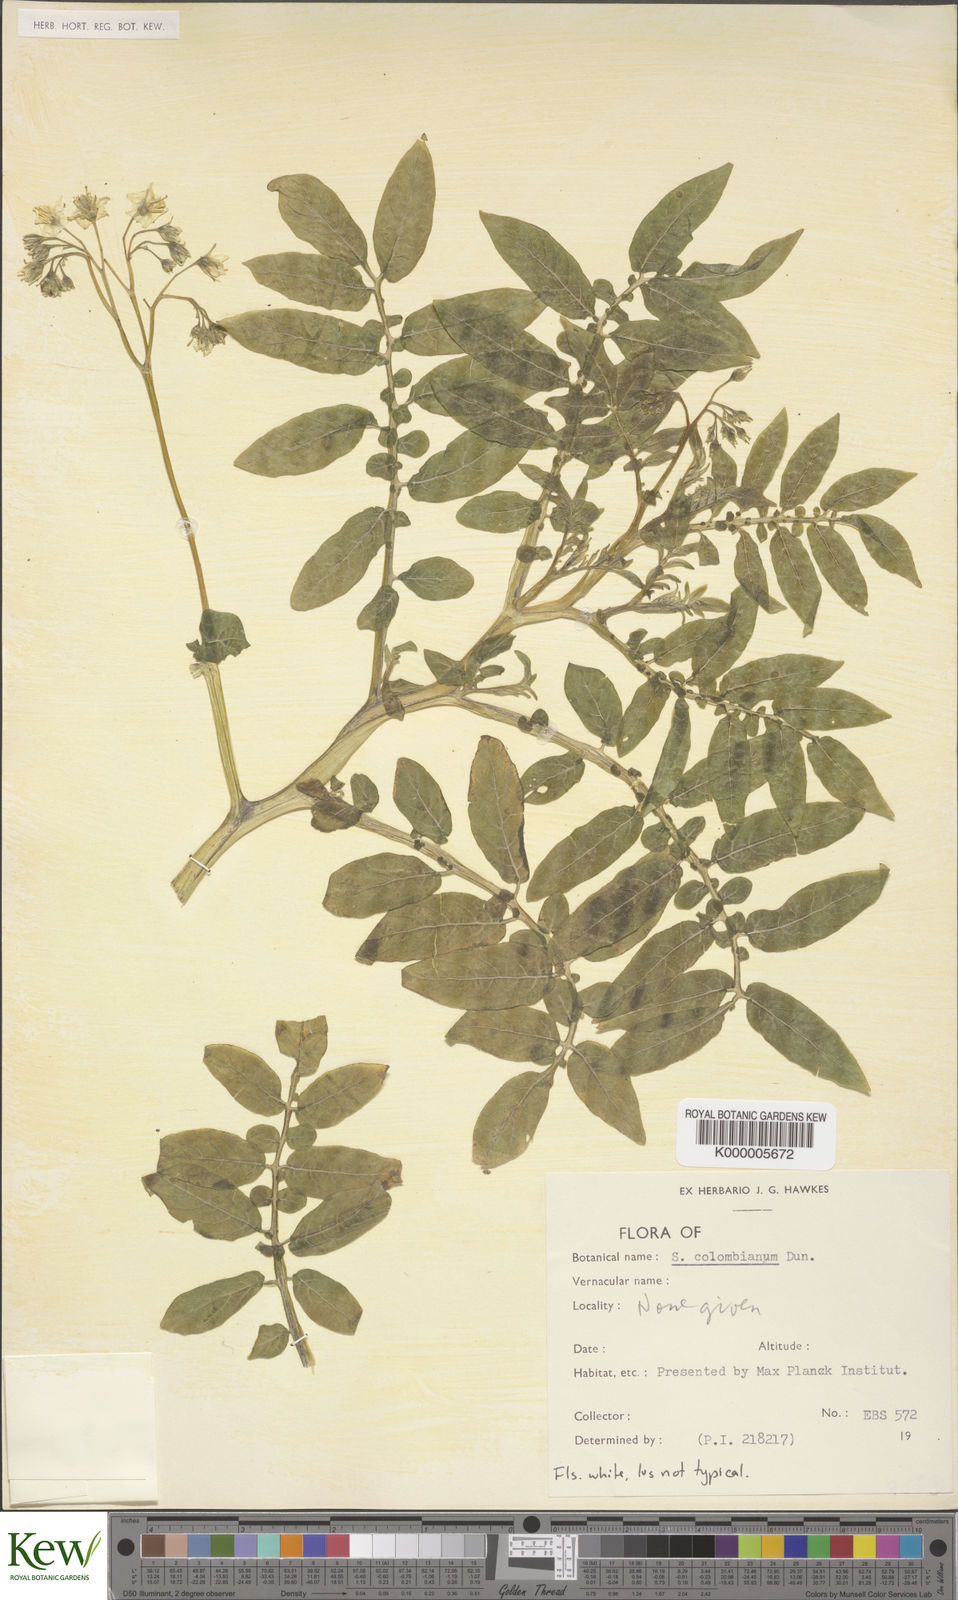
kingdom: Plantae
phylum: Tracheophyta
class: Magnoliopsida
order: Solanales
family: Solanaceae
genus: Solanum
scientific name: Solanum colombianum
